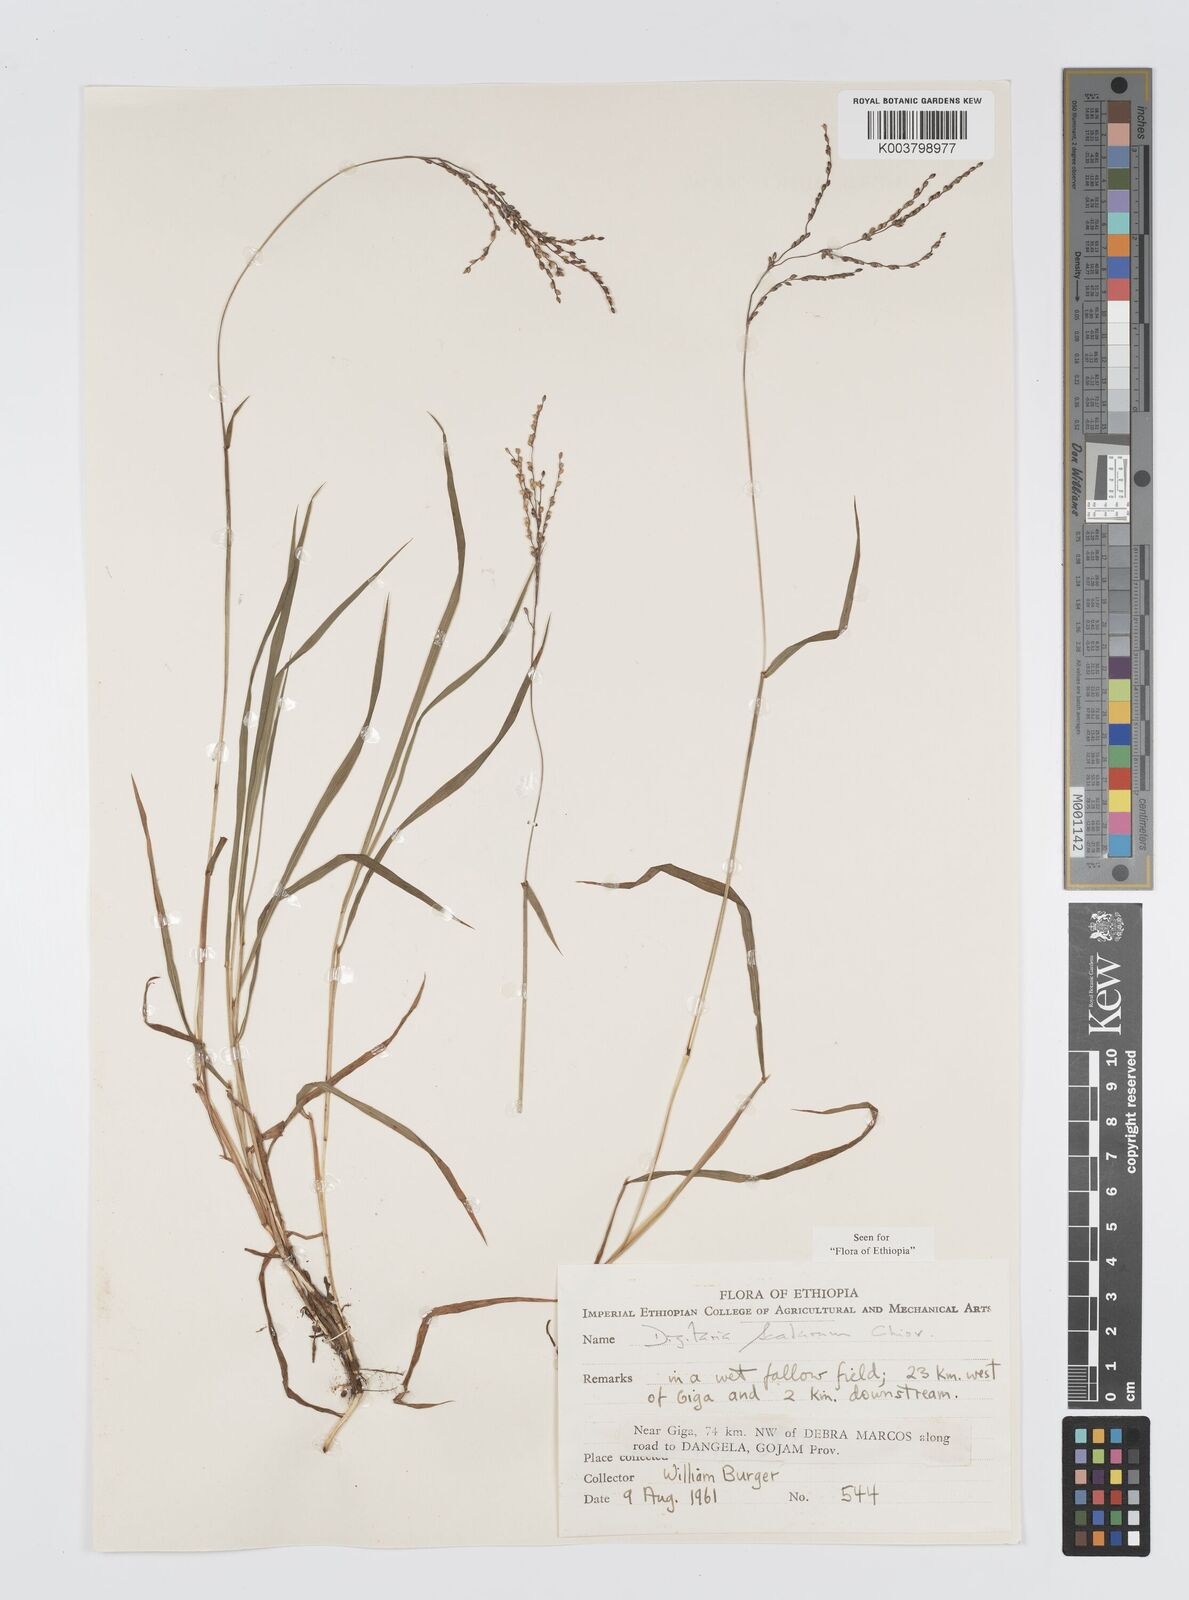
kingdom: Plantae
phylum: Tracheophyta
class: Liliopsida
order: Poales
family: Poaceae
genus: Digitaria
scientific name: Digitaria abyssinica
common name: African couchgrass
